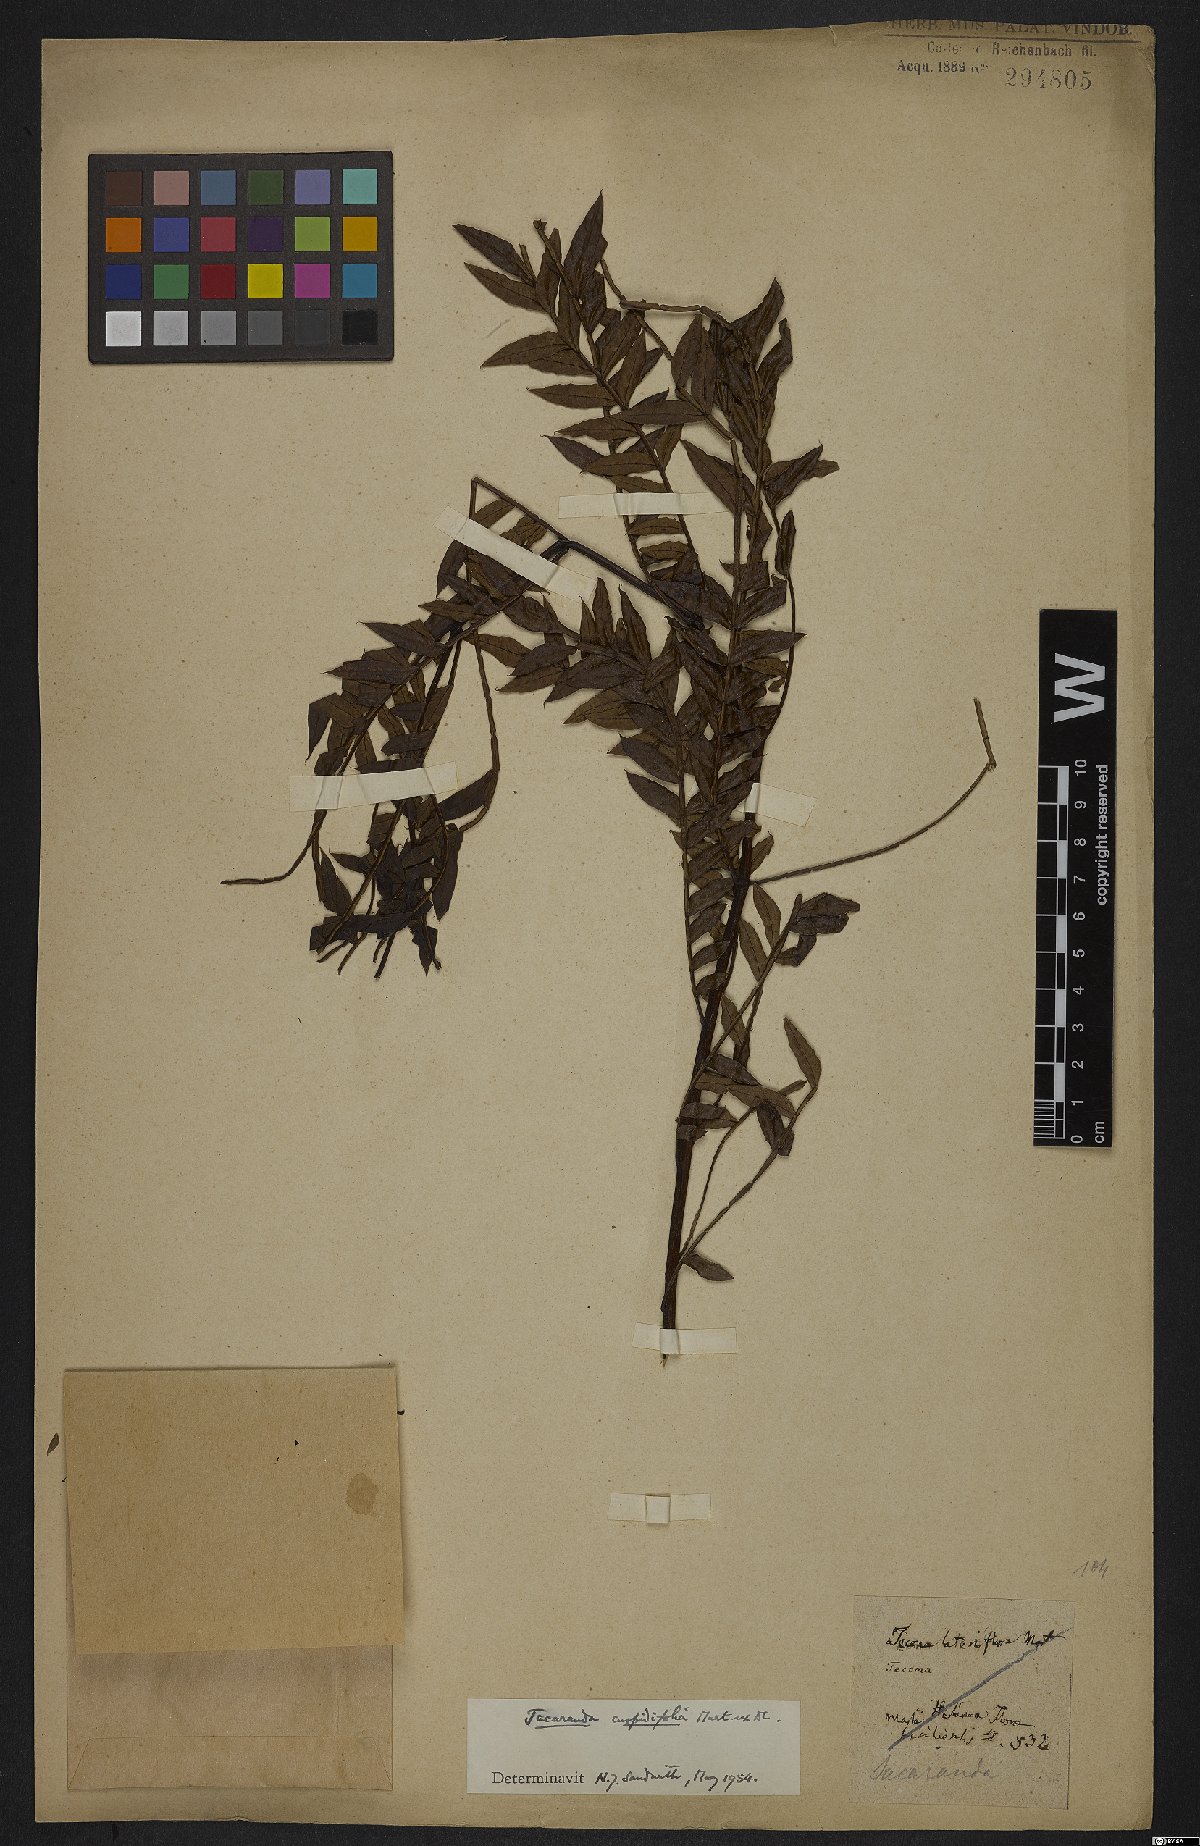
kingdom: Plantae
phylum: Tracheophyta
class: Magnoliopsida
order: Lamiales
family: Bignoniaceae
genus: Jacaranda
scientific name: Jacaranda cuspidifolia
